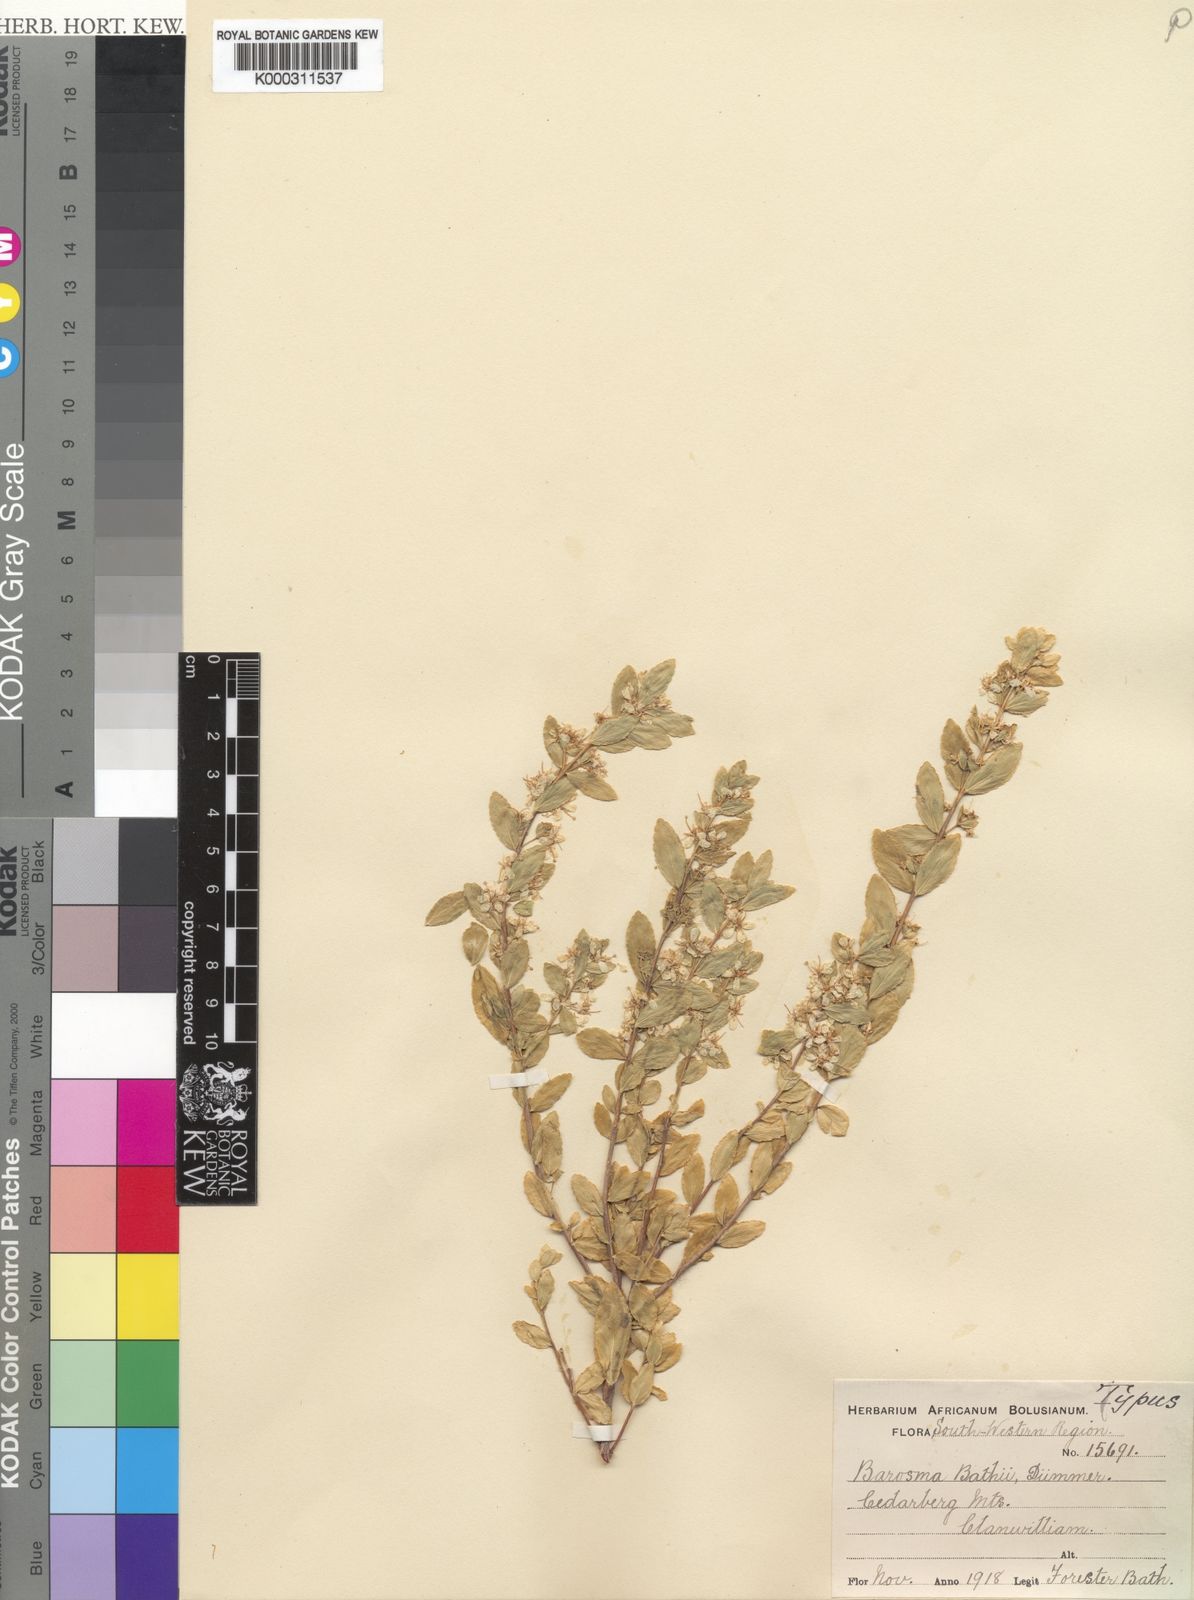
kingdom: Plantae
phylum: Tracheophyta
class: Magnoliopsida
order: Sapindales
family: Rutaceae
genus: Agathosma
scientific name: Agathosma bathii
